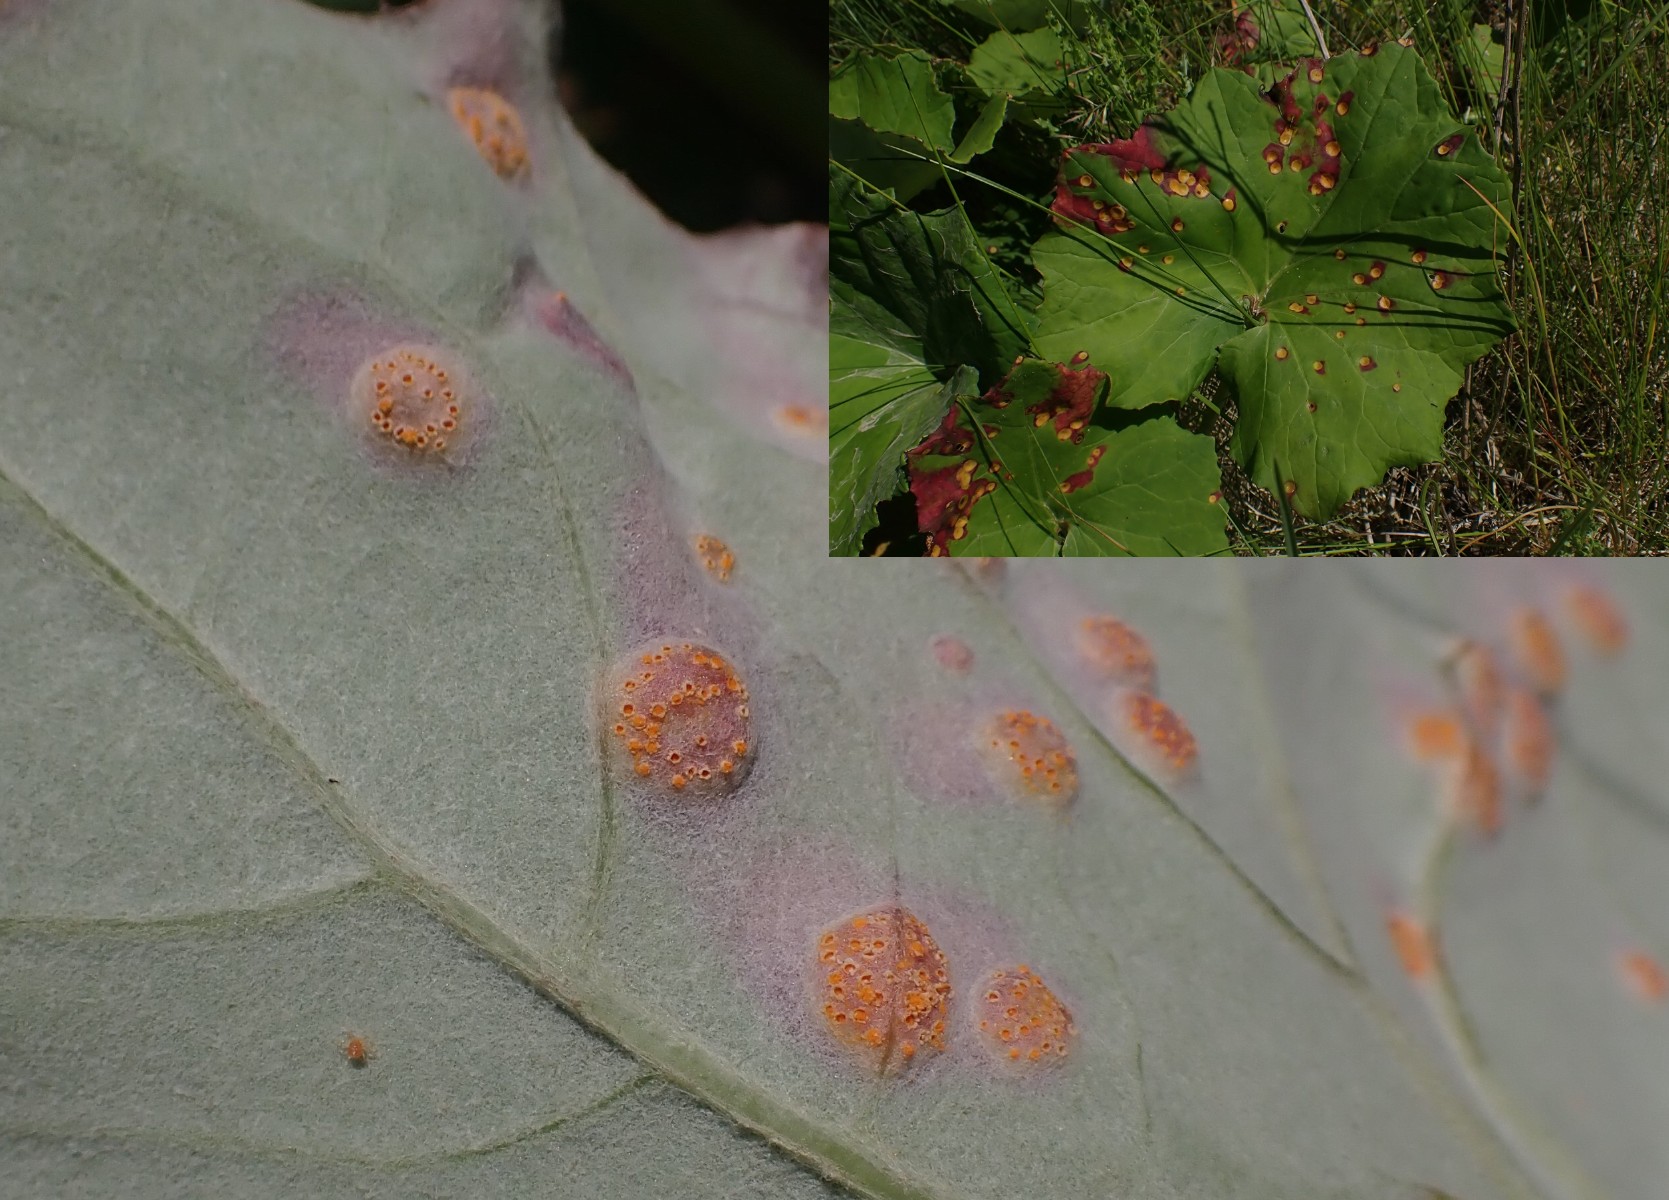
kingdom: Fungi
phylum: Basidiomycota
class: Pucciniomycetes
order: Pucciniales
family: Pucciniaceae
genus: Puccinia
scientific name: Puccinia poarum
